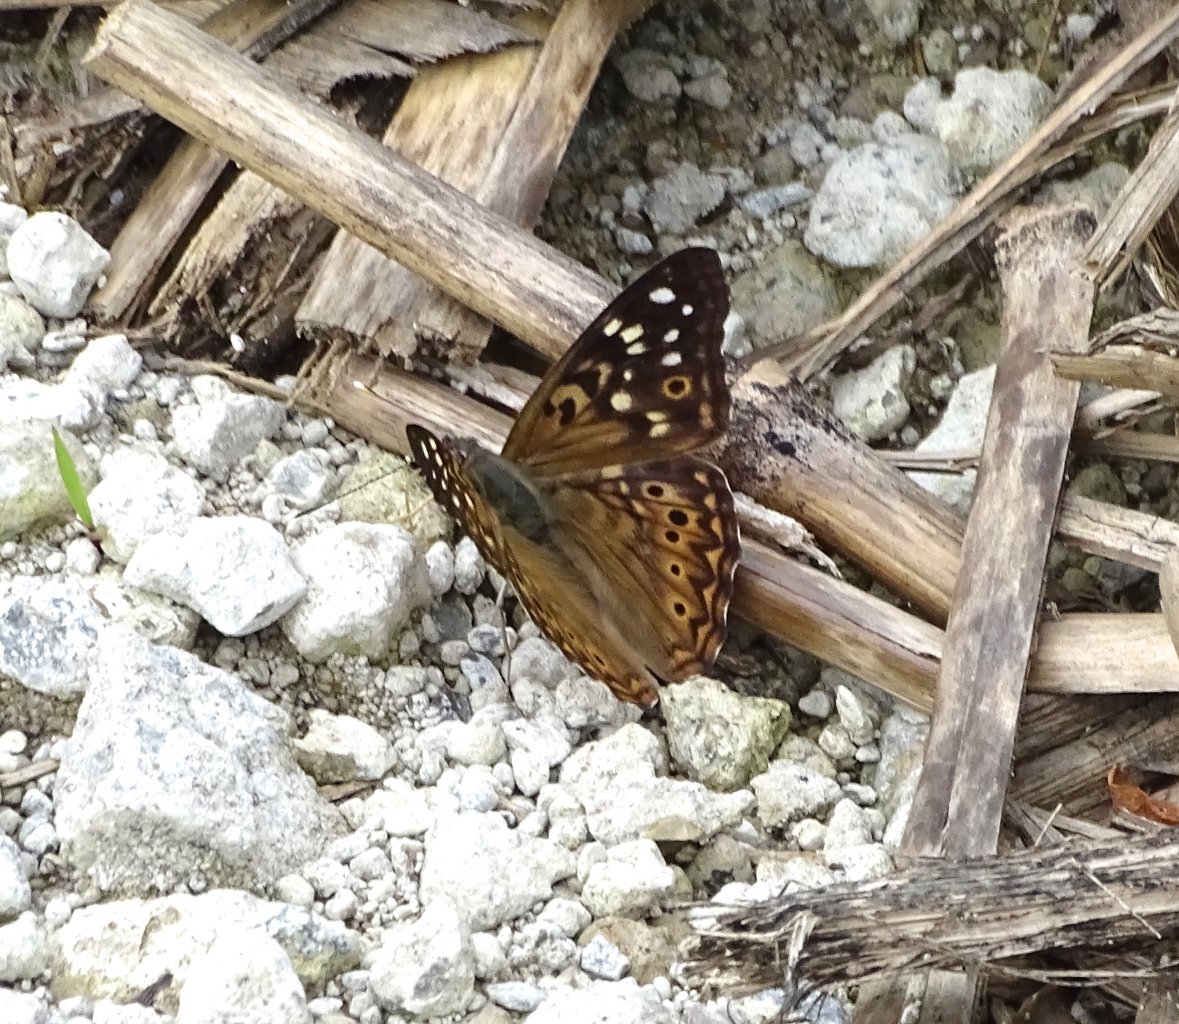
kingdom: Animalia
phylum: Arthropoda
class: Insecta
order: Lepidoptera
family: Nymphalidae
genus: Asterocampa
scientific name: Asterocampa celtis
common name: Hackberry Emperor
